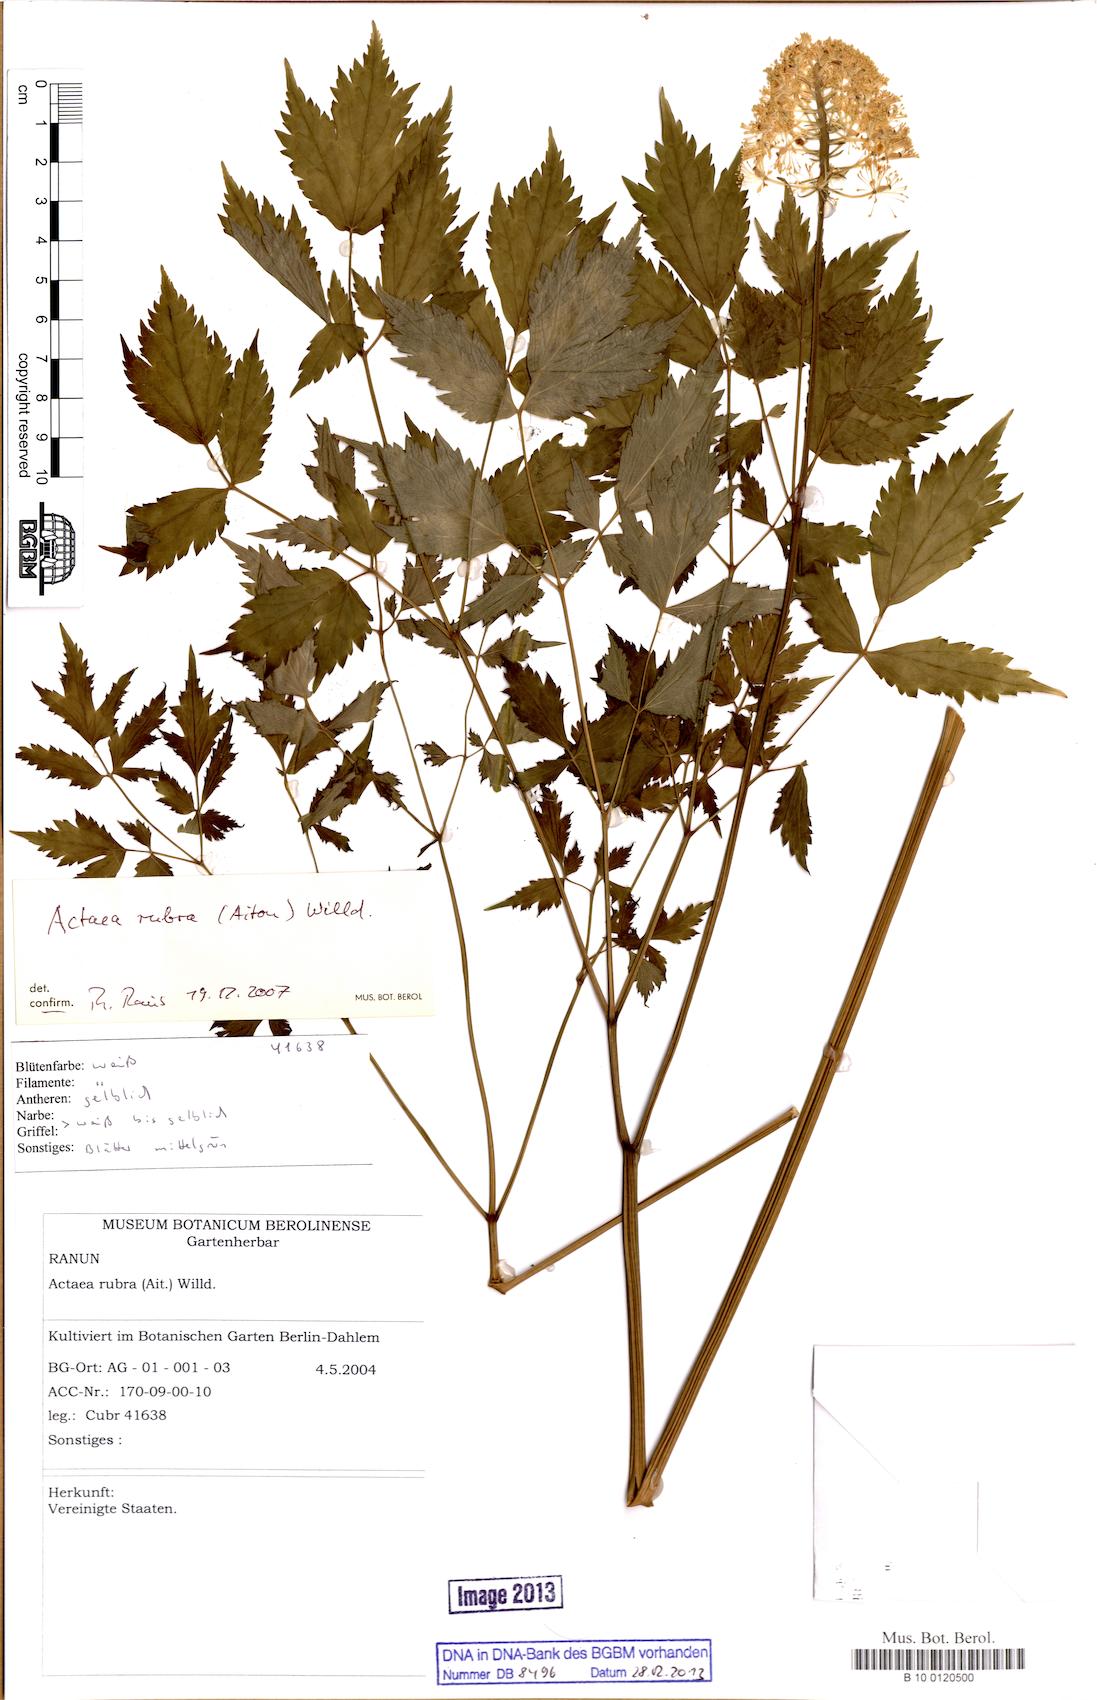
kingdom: Plantae
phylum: Tracheophyta
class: Magnoliopsida
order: Ranunculales
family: Ranunculaceae
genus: Actaea
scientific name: Actaea rubra
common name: Red baneberry
